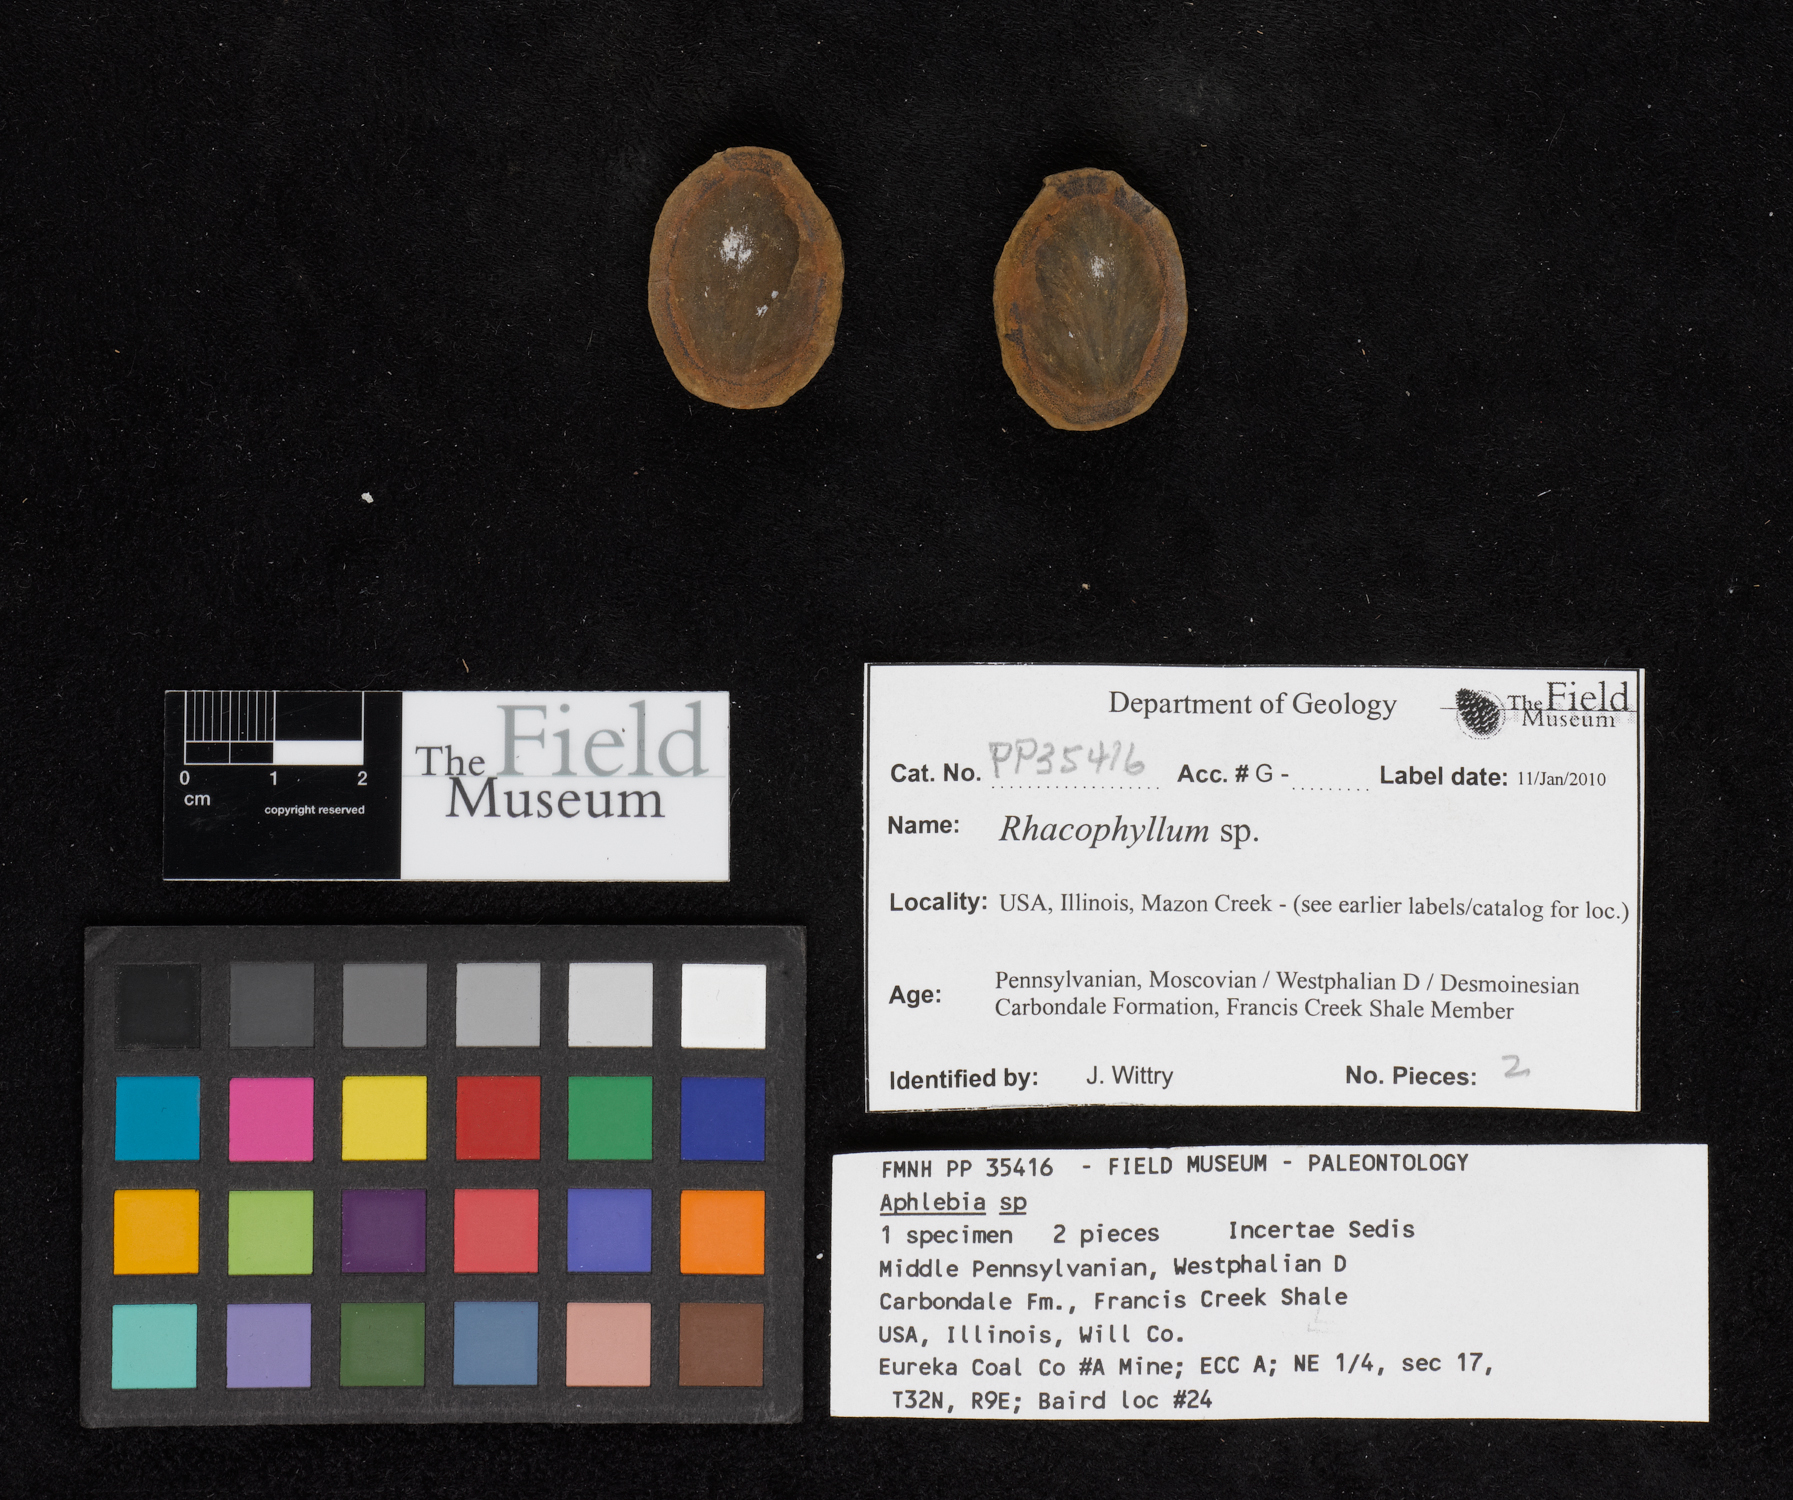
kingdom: Plantae
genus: Rhacophyllum
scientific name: Rhacophyllum
